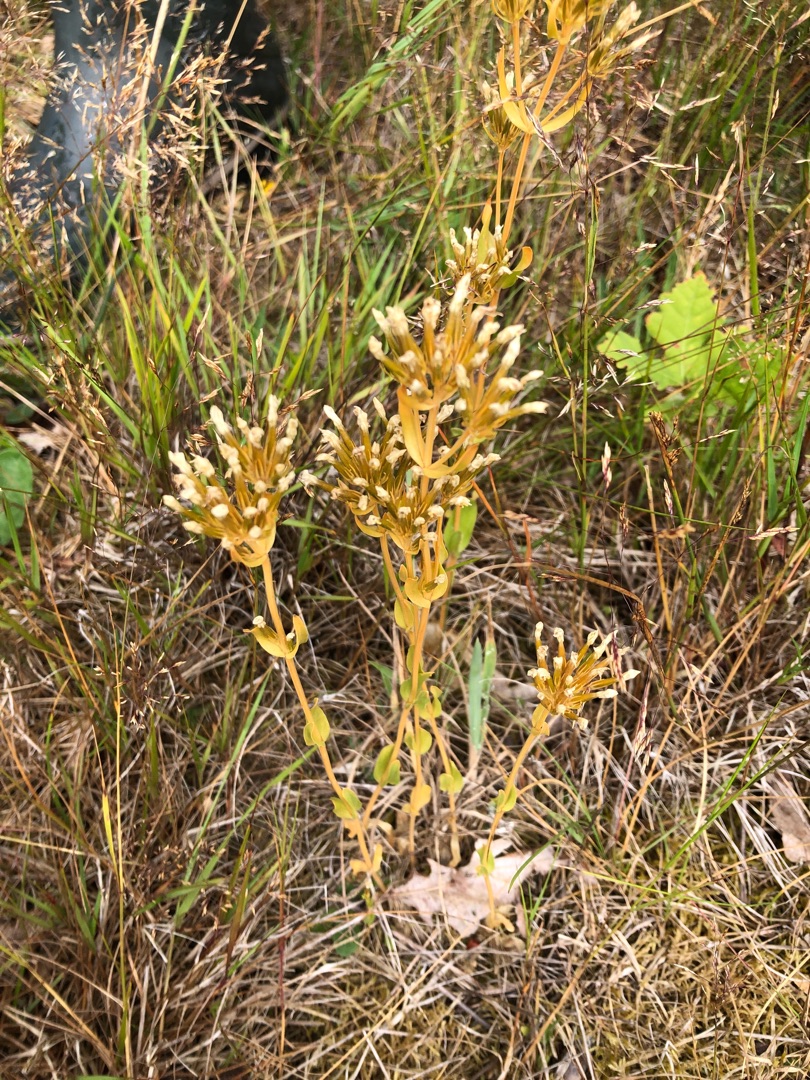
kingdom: Plantae
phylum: Tracheophyta
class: Magnoliopsida
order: Gentianales
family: Gentianaceae
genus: Centaurium
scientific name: Centaurium erythraea
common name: Mark-tusindgylden
